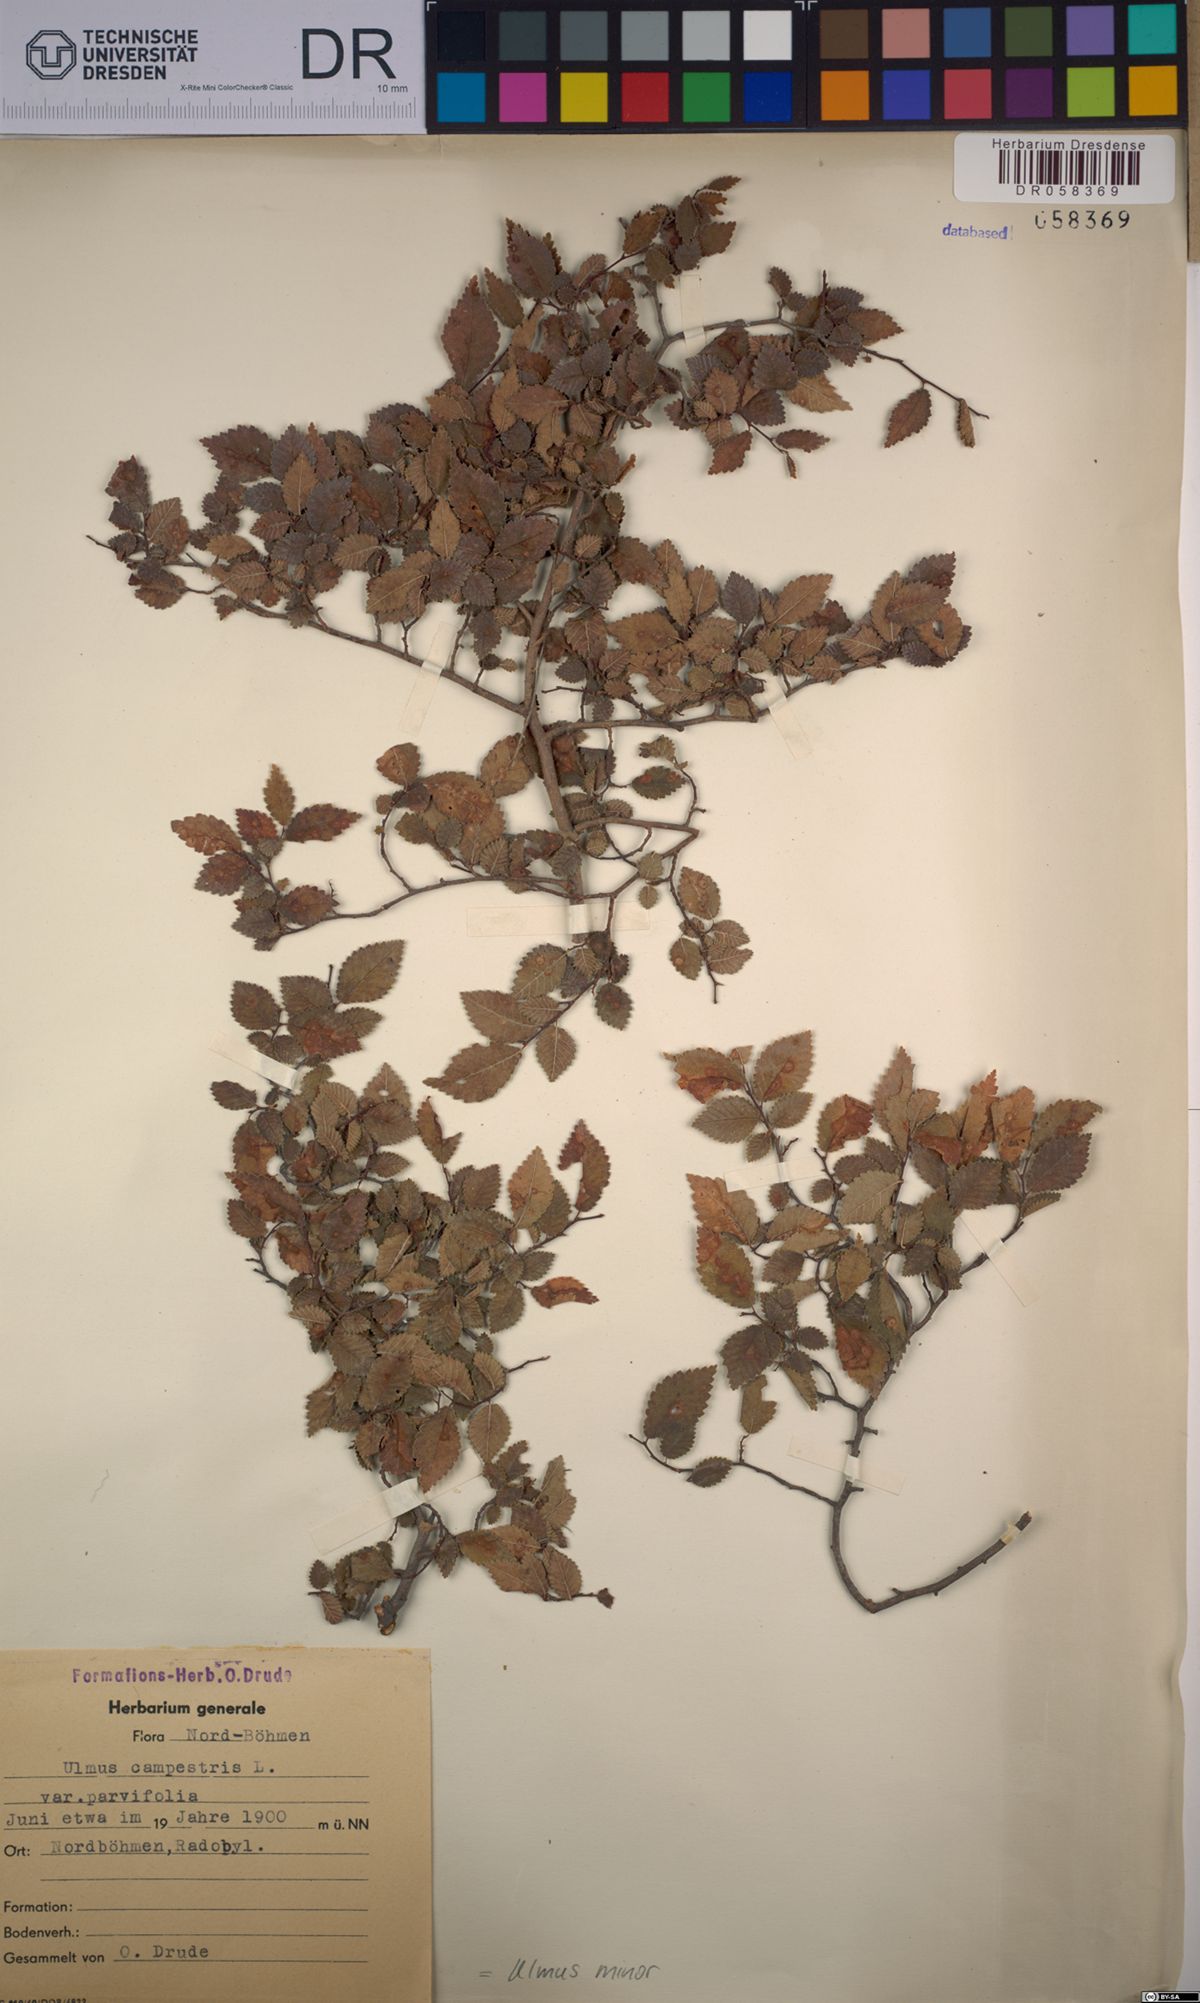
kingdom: Plantae
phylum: Tracheophyta
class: Magnoliopsida
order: Rosales
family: Ulmaceae
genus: Ulmus
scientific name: Ulmus minor
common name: Small-leaved elm
